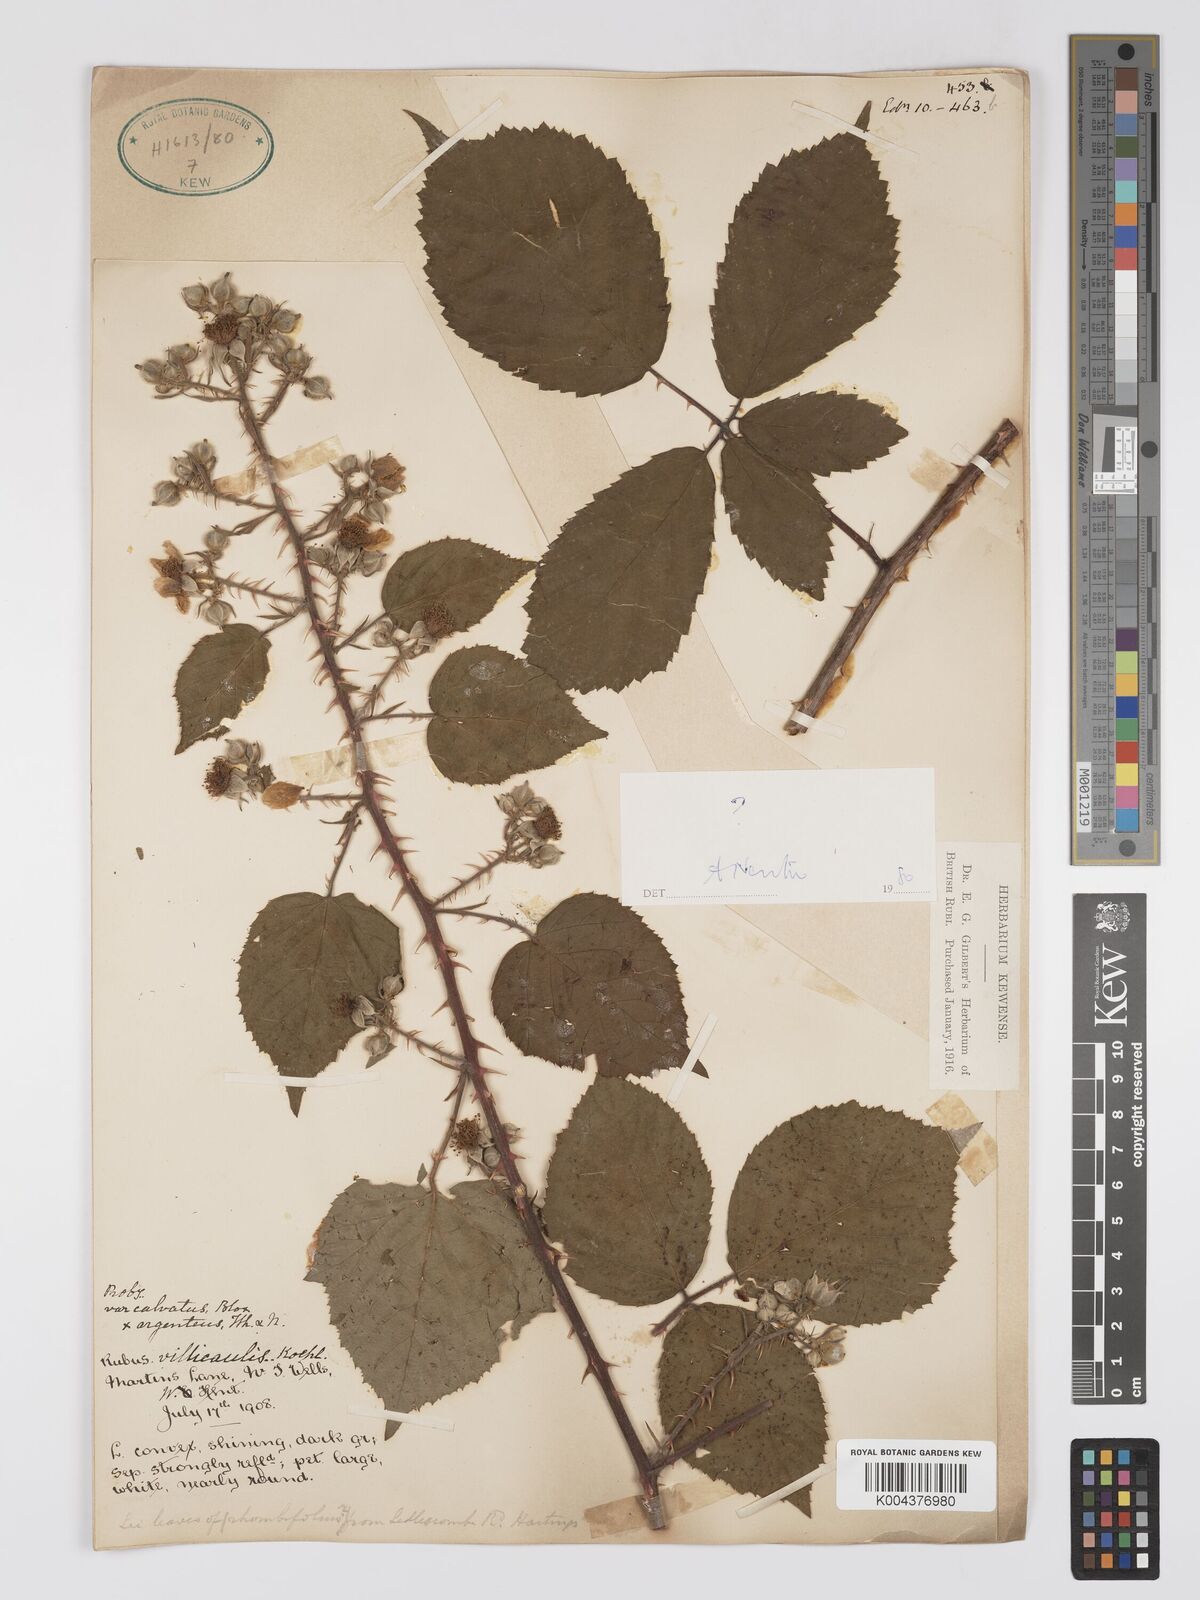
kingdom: Plantae
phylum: Tracheophyta
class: Magnoliopsida
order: Rosales
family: Rosaceae
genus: Rubus
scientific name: Rubus calvatus
